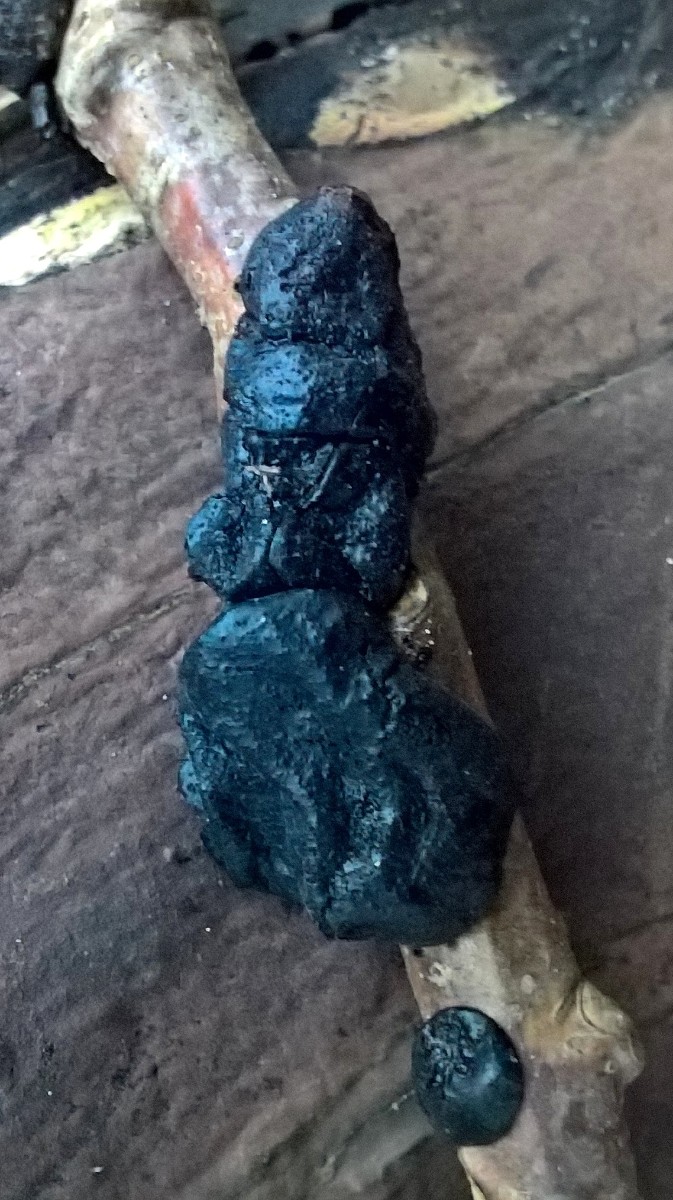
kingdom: Fungi
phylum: Basidiomycota
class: Agaricomycetes
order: Auriculariales
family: Auriculariaceae
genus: Exidia
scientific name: Exidia glandulosa
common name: ege-bævretop
